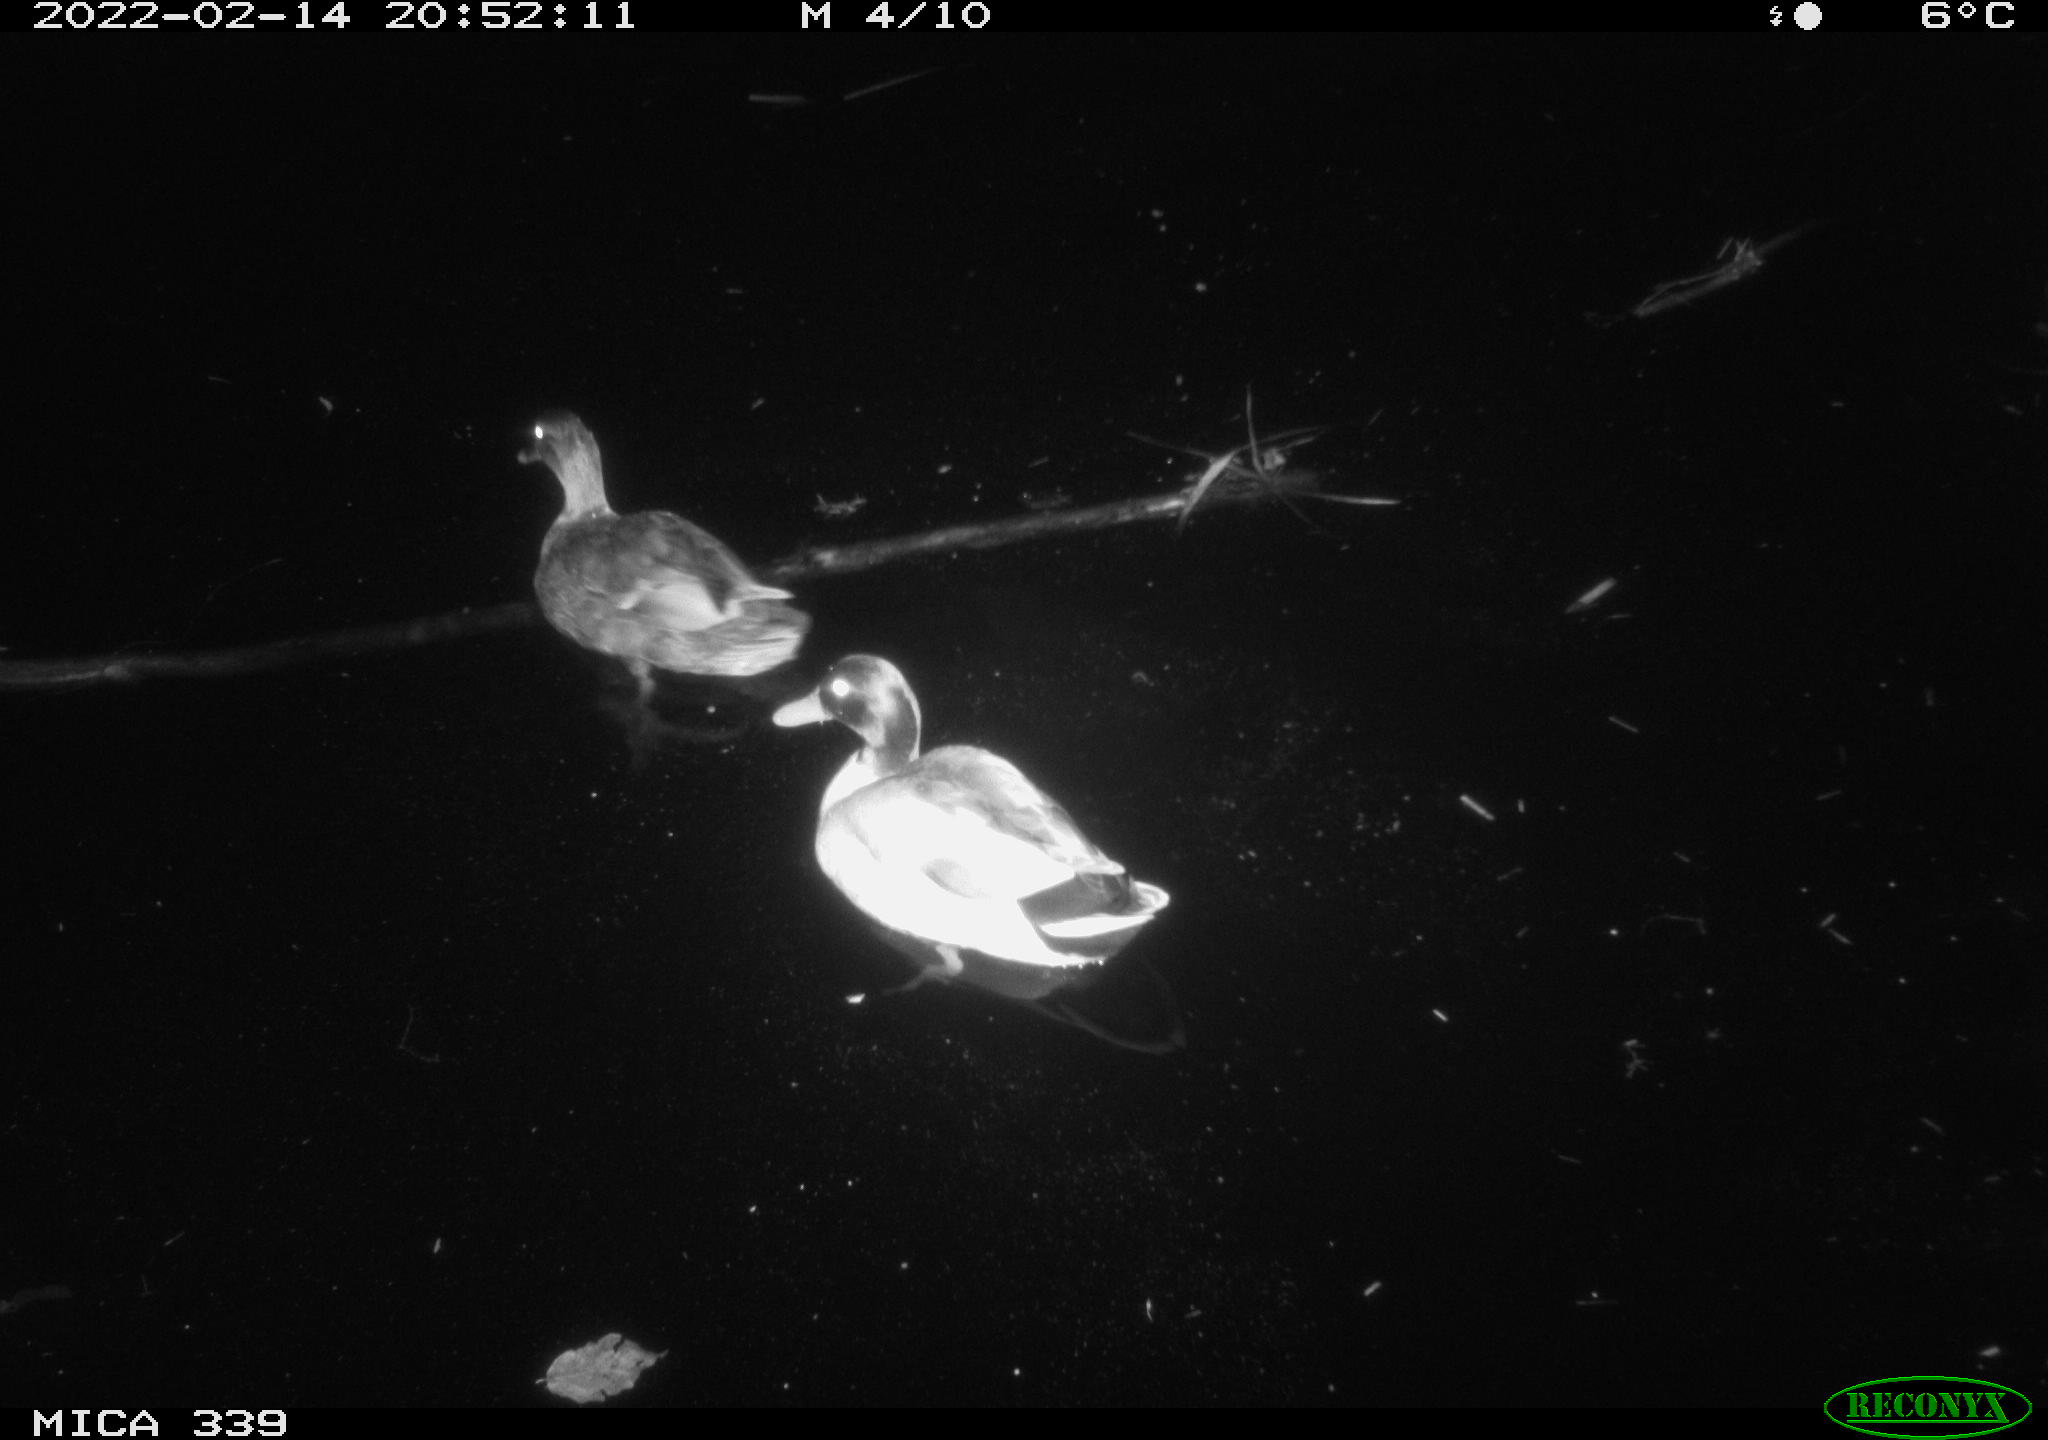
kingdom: Animalia
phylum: Chordata
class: Aves
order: Anseriformes
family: Anatidae
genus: Anas
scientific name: Anas platyrhynchos
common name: Mallard
